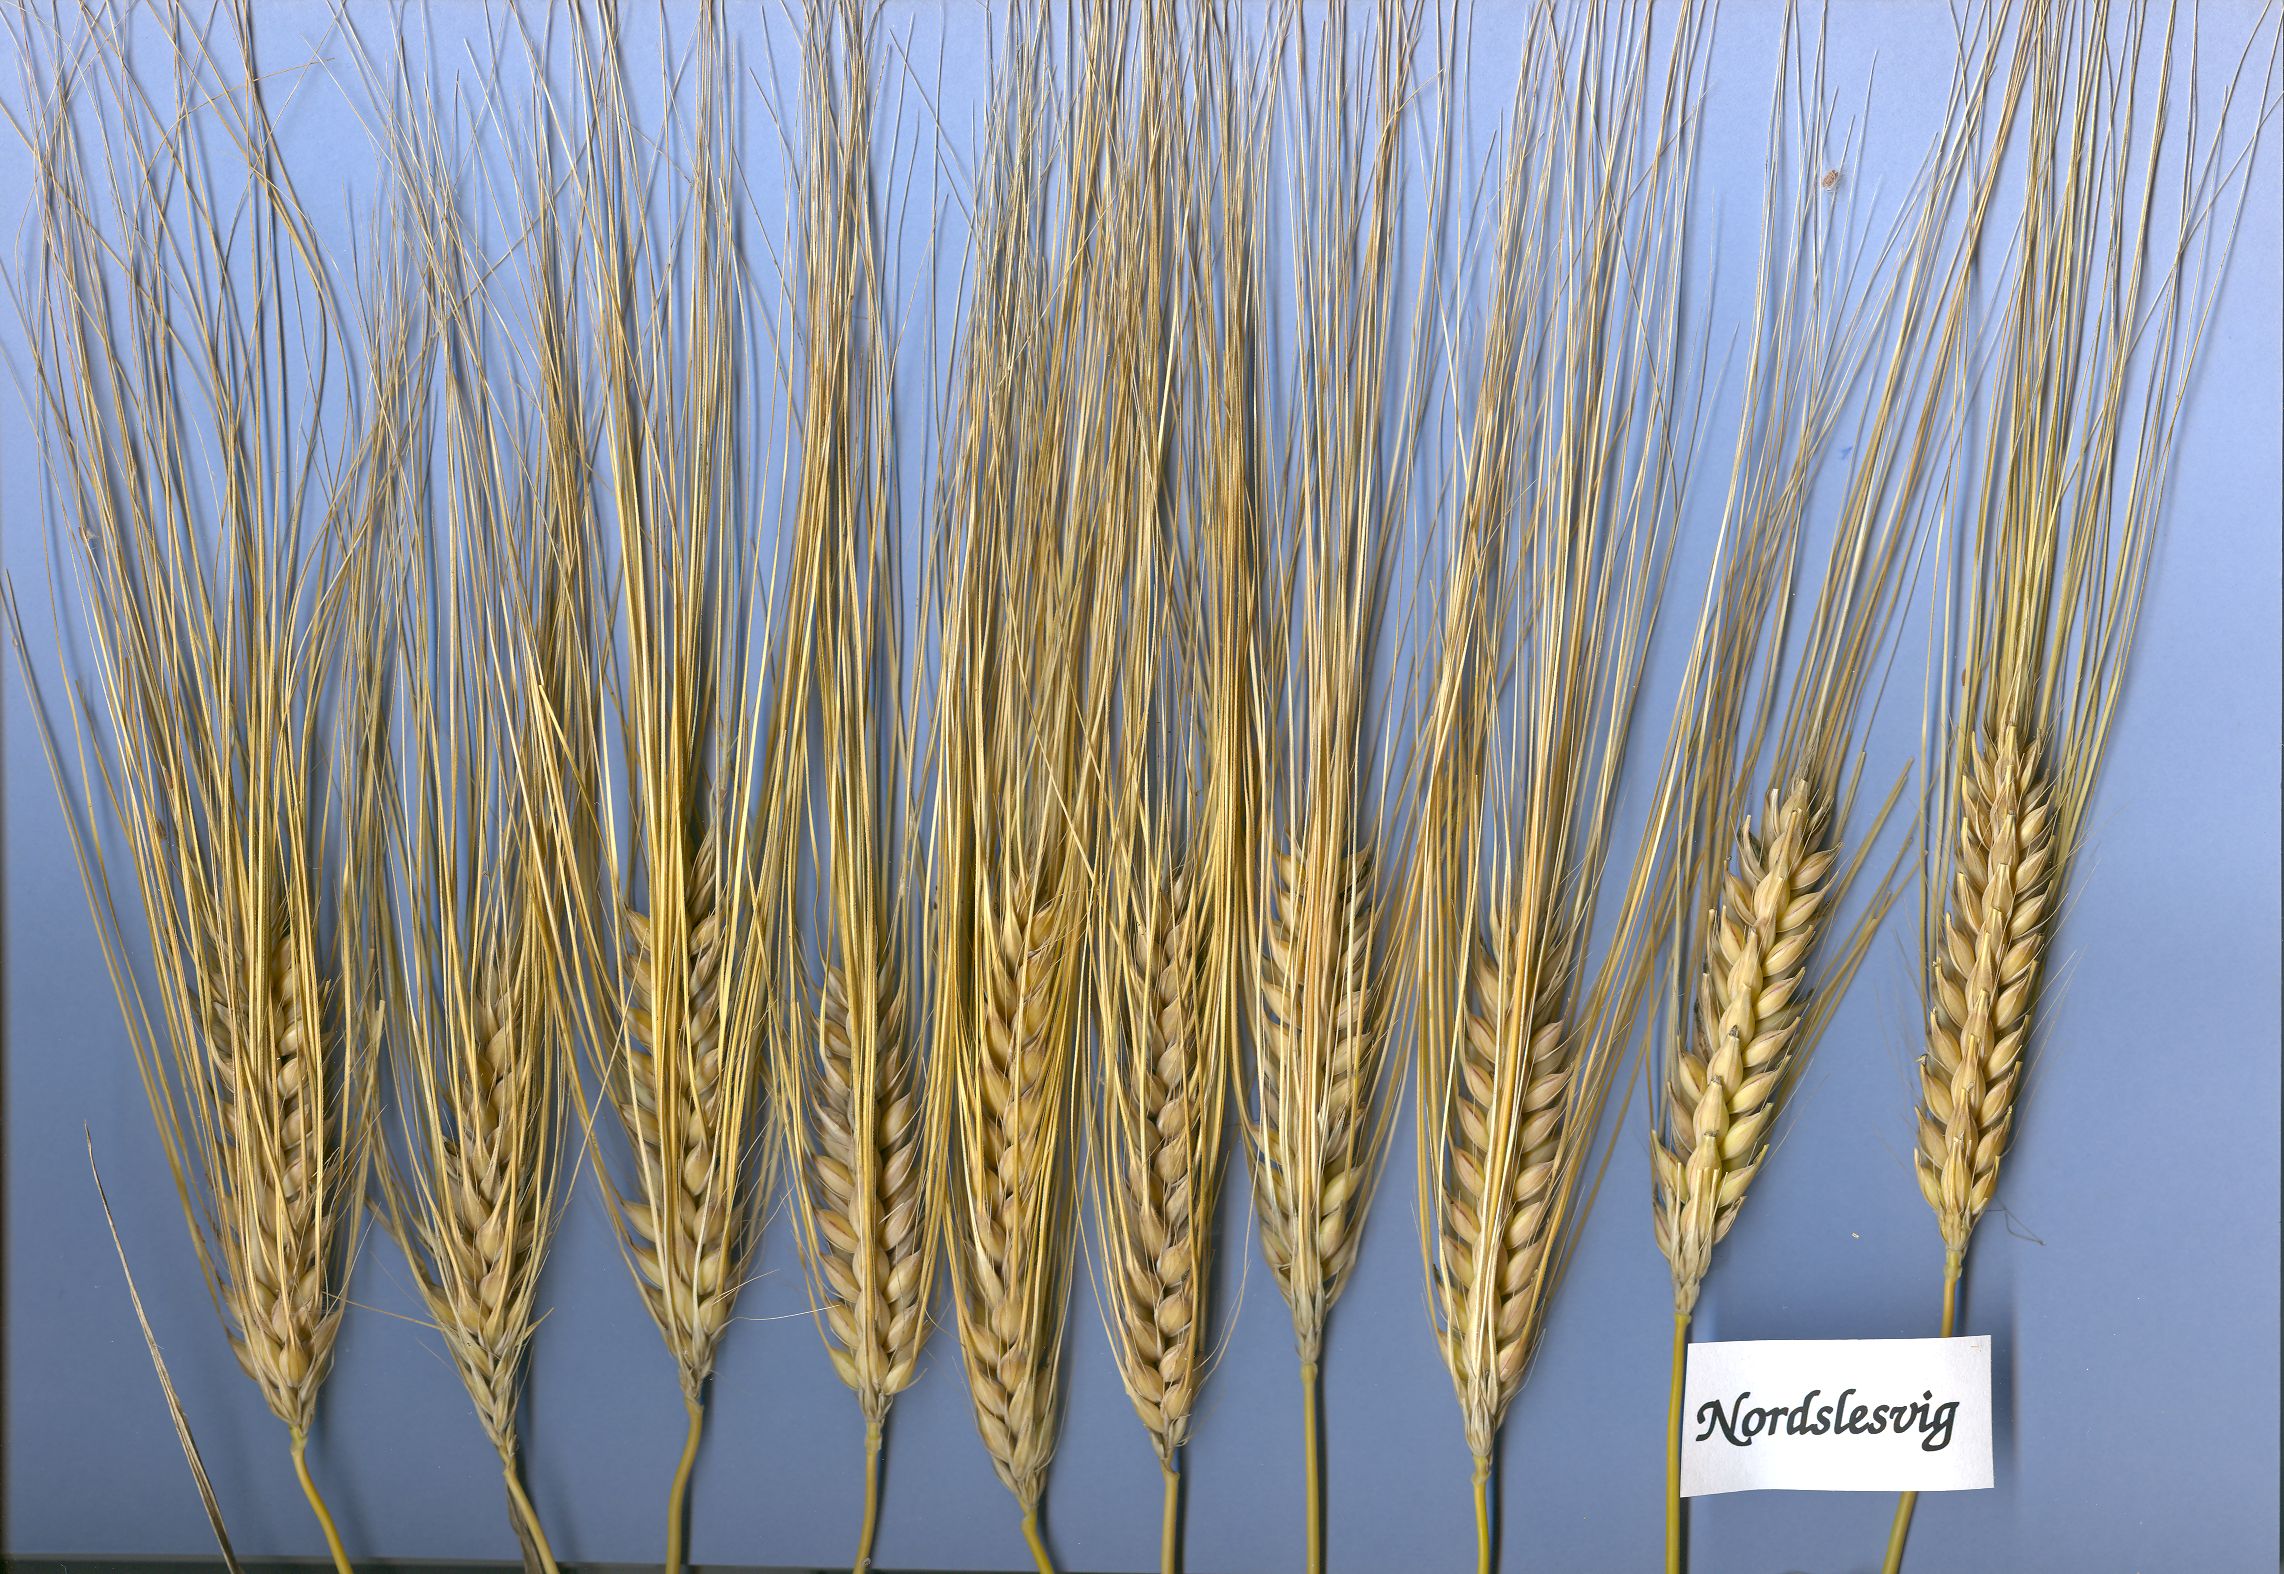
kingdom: Plantae
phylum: Tracheophyta
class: Liliopsida
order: Poales
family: Poaceae
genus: Hordeum
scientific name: Hordeum vulgare
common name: Common barley
